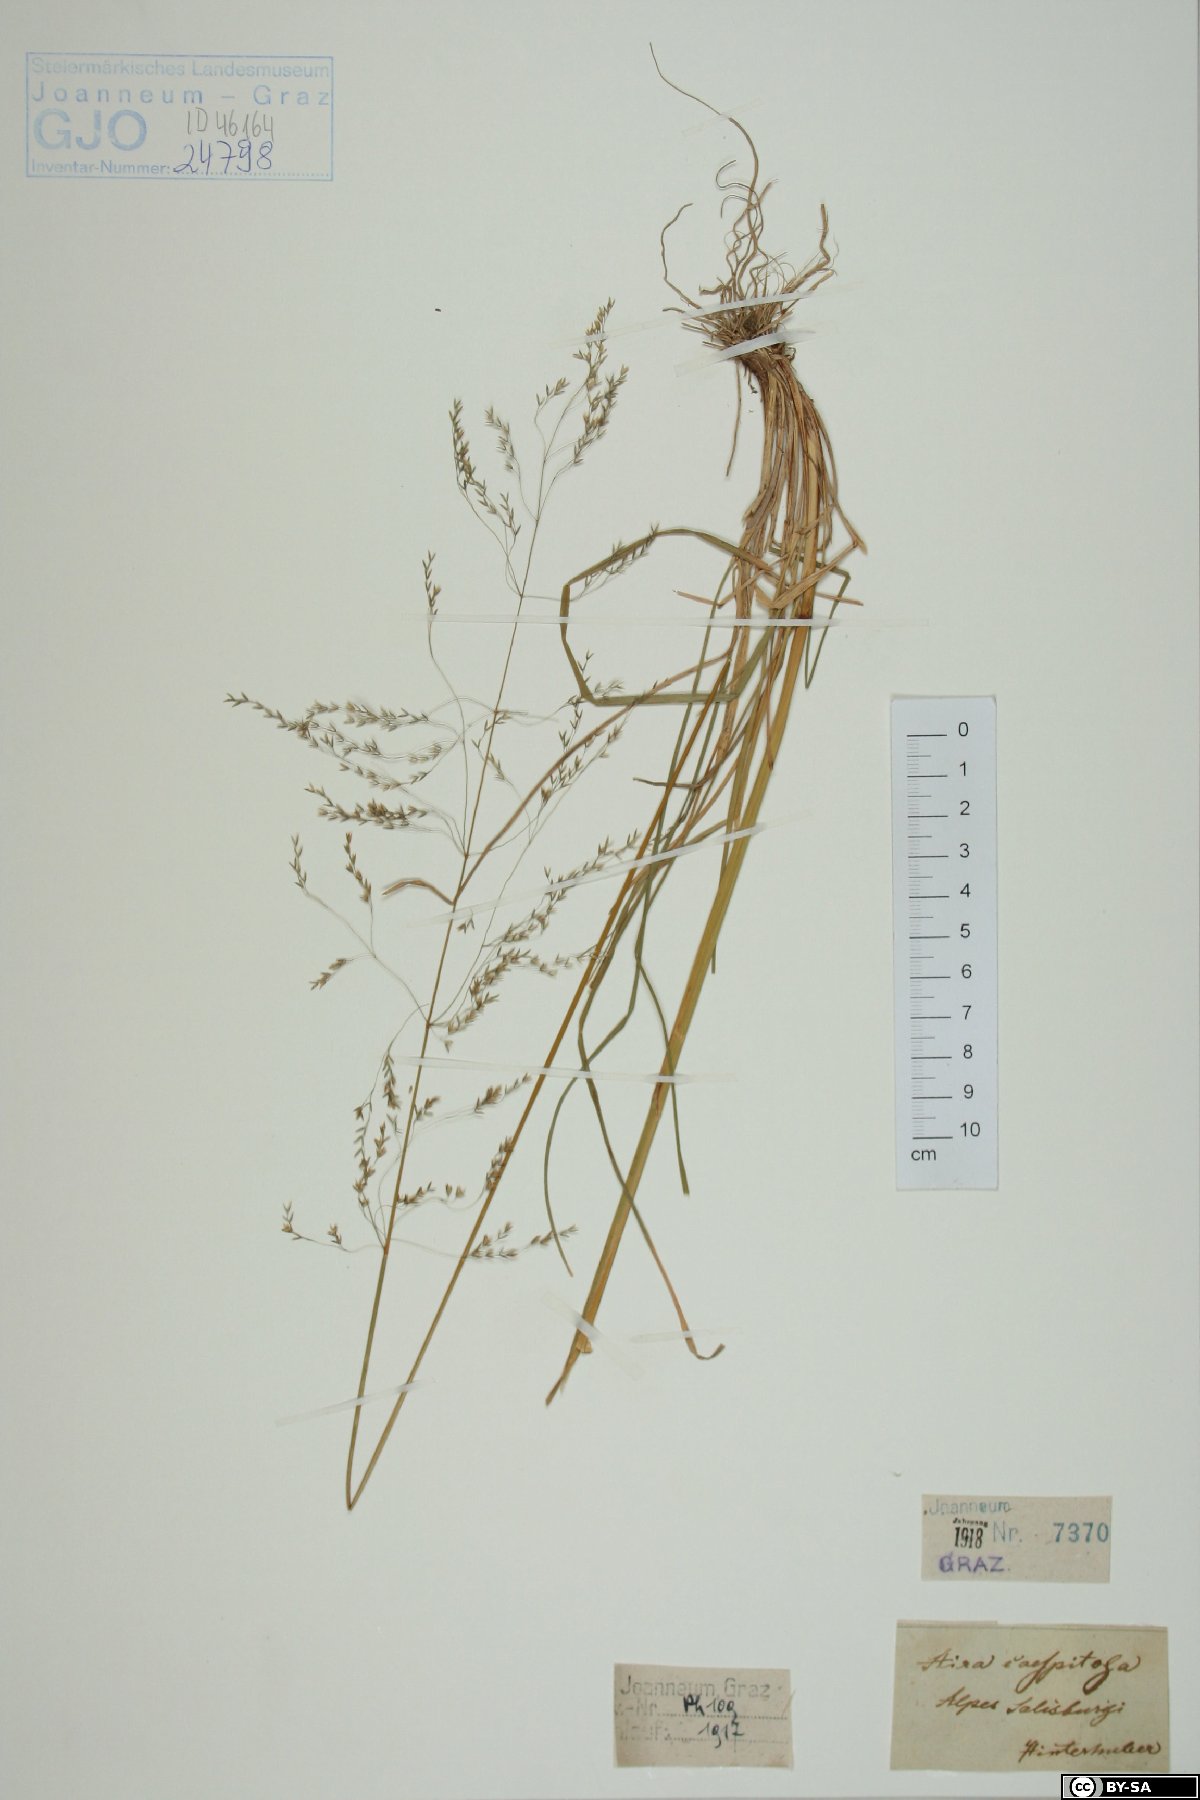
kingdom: Plantae
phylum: Tracheophyta
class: Liliopsida
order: Poales
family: Poaceae
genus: Deschampsia
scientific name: Deschampsia cespitosa
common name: Tufted hair-grass
